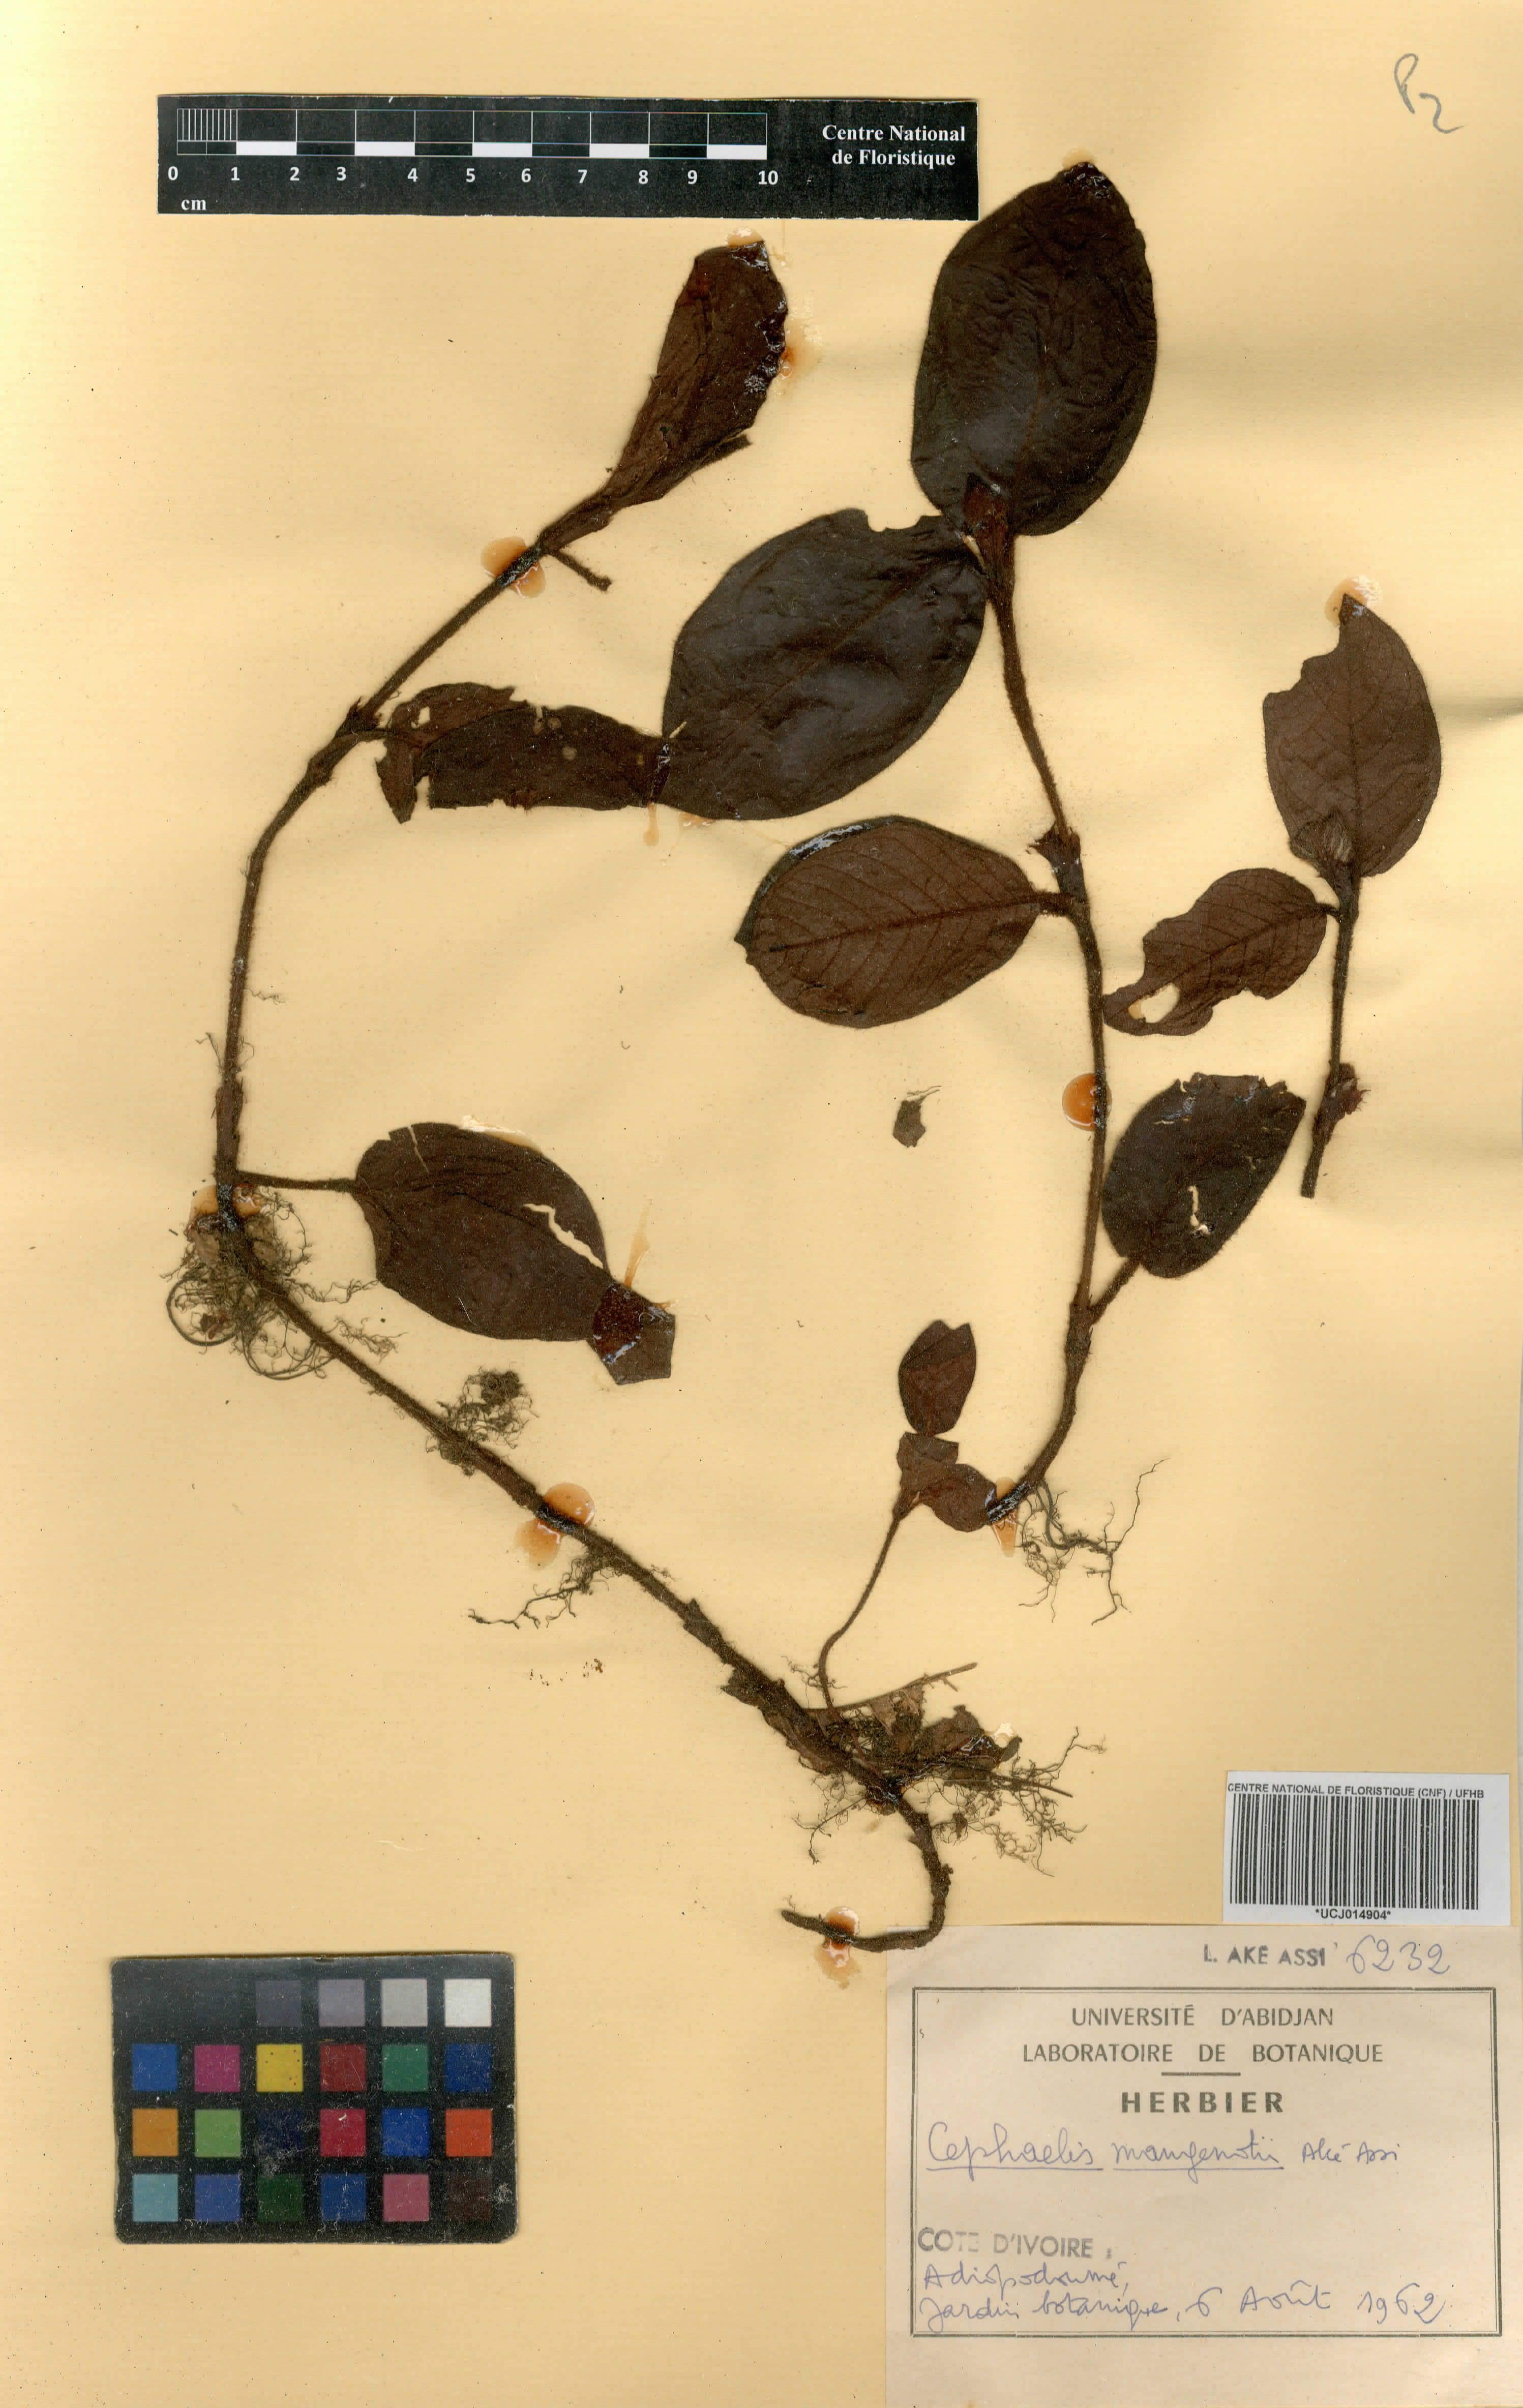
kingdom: Plantae
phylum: Tracheophyta
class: Magnoliopsida
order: Gentianales
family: Rubiaceae
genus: Psychotria
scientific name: Psychotria mangenotii
